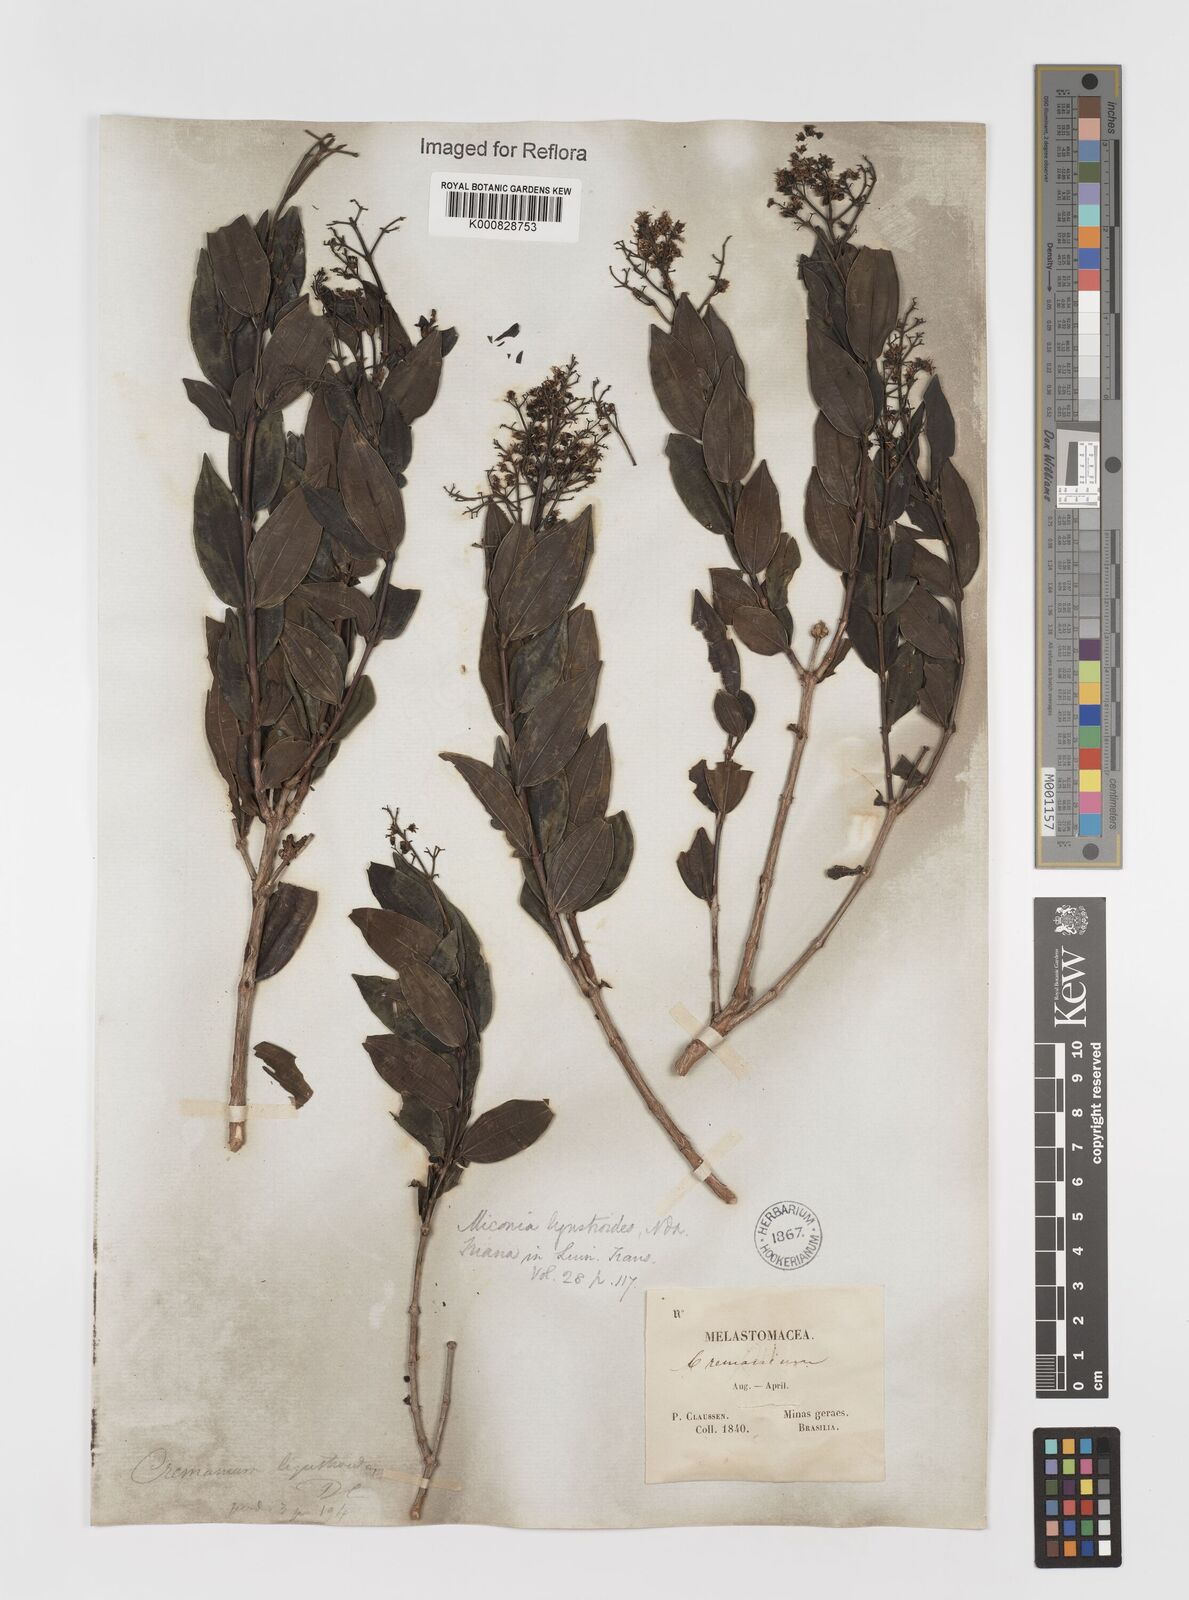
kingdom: Plantae
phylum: Tracheophyta
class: Magnoliopsida
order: Myrtales
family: Melastomataceae
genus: Miconia
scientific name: Miconia ligustroides
